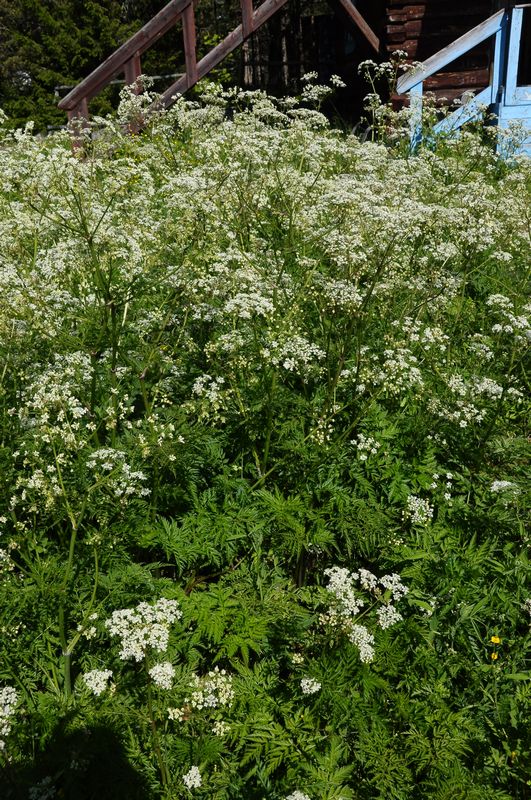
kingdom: Plantae
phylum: Tracheophyta
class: Magnoliopsida
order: Apiales
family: Apiaceae
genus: Anthriscus
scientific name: Anthriscus sylvestris
